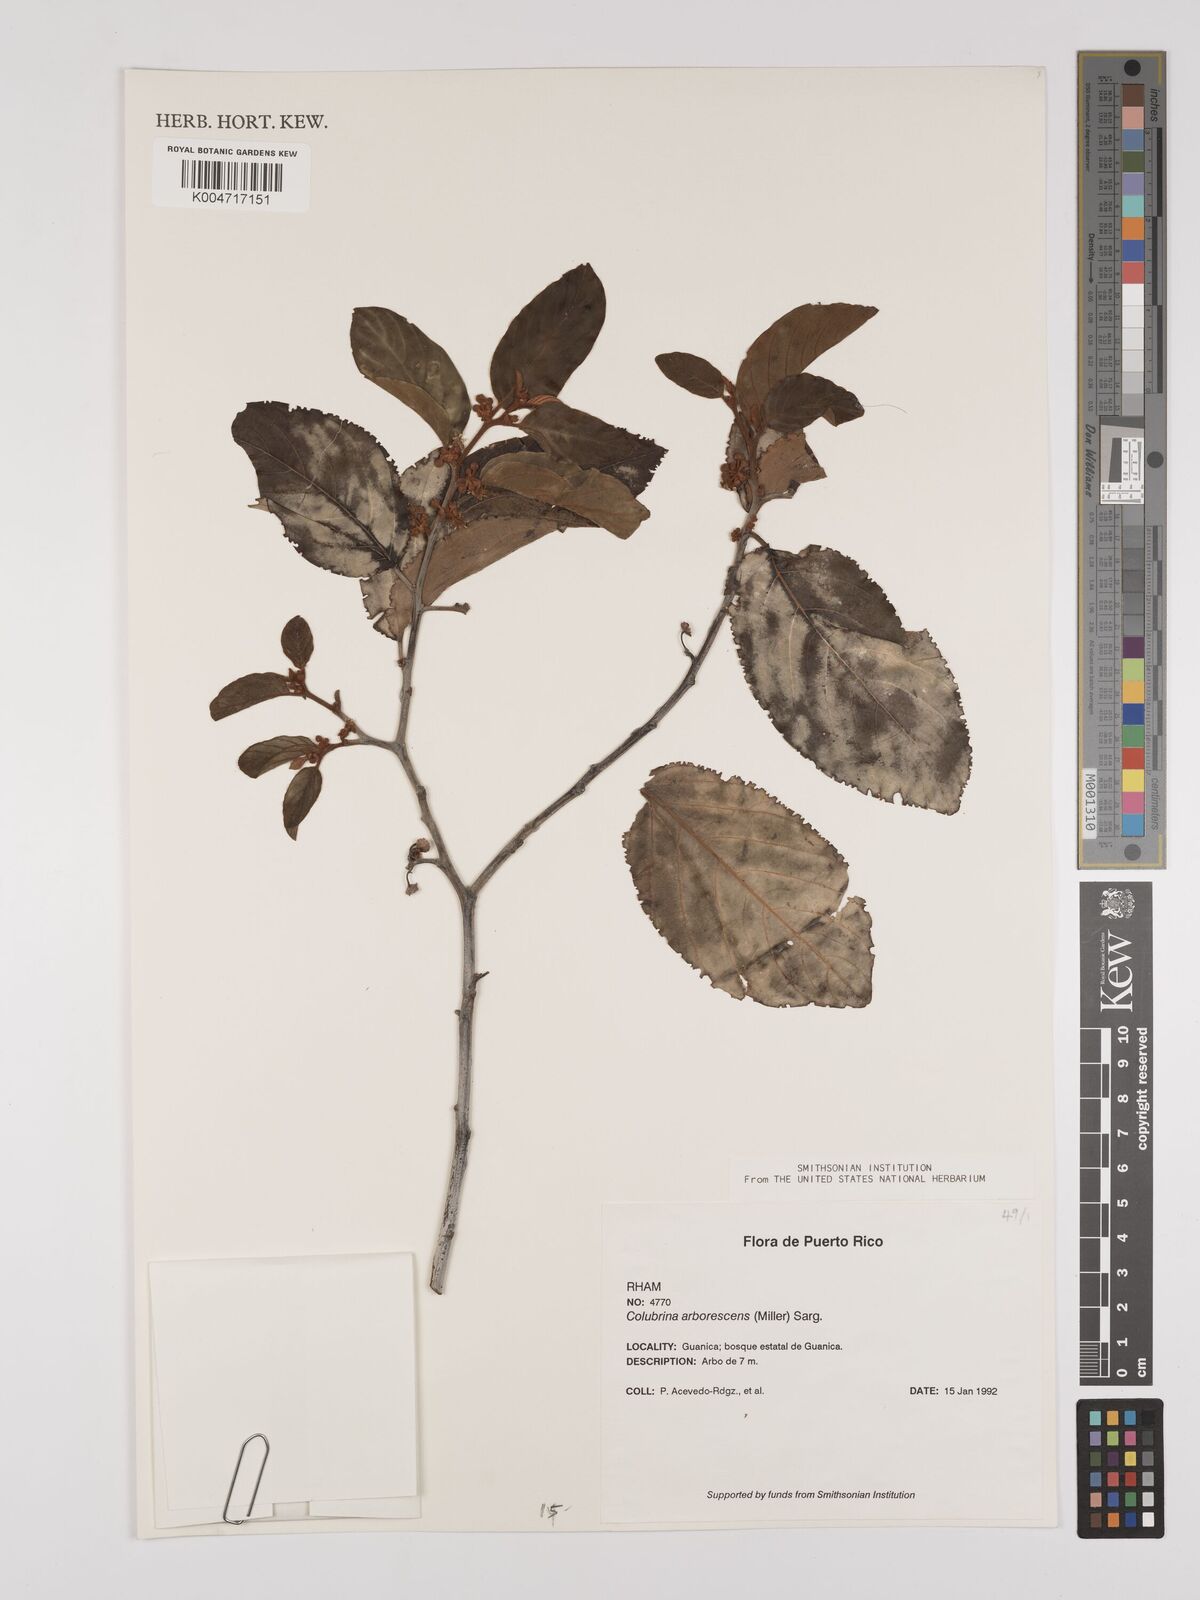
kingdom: Plantae
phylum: Tracheophyta
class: Magnoliopsida
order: Rosales
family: Rhamnaceae
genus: Colubrina
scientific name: Colubrina arborescens
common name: Wild coffee
